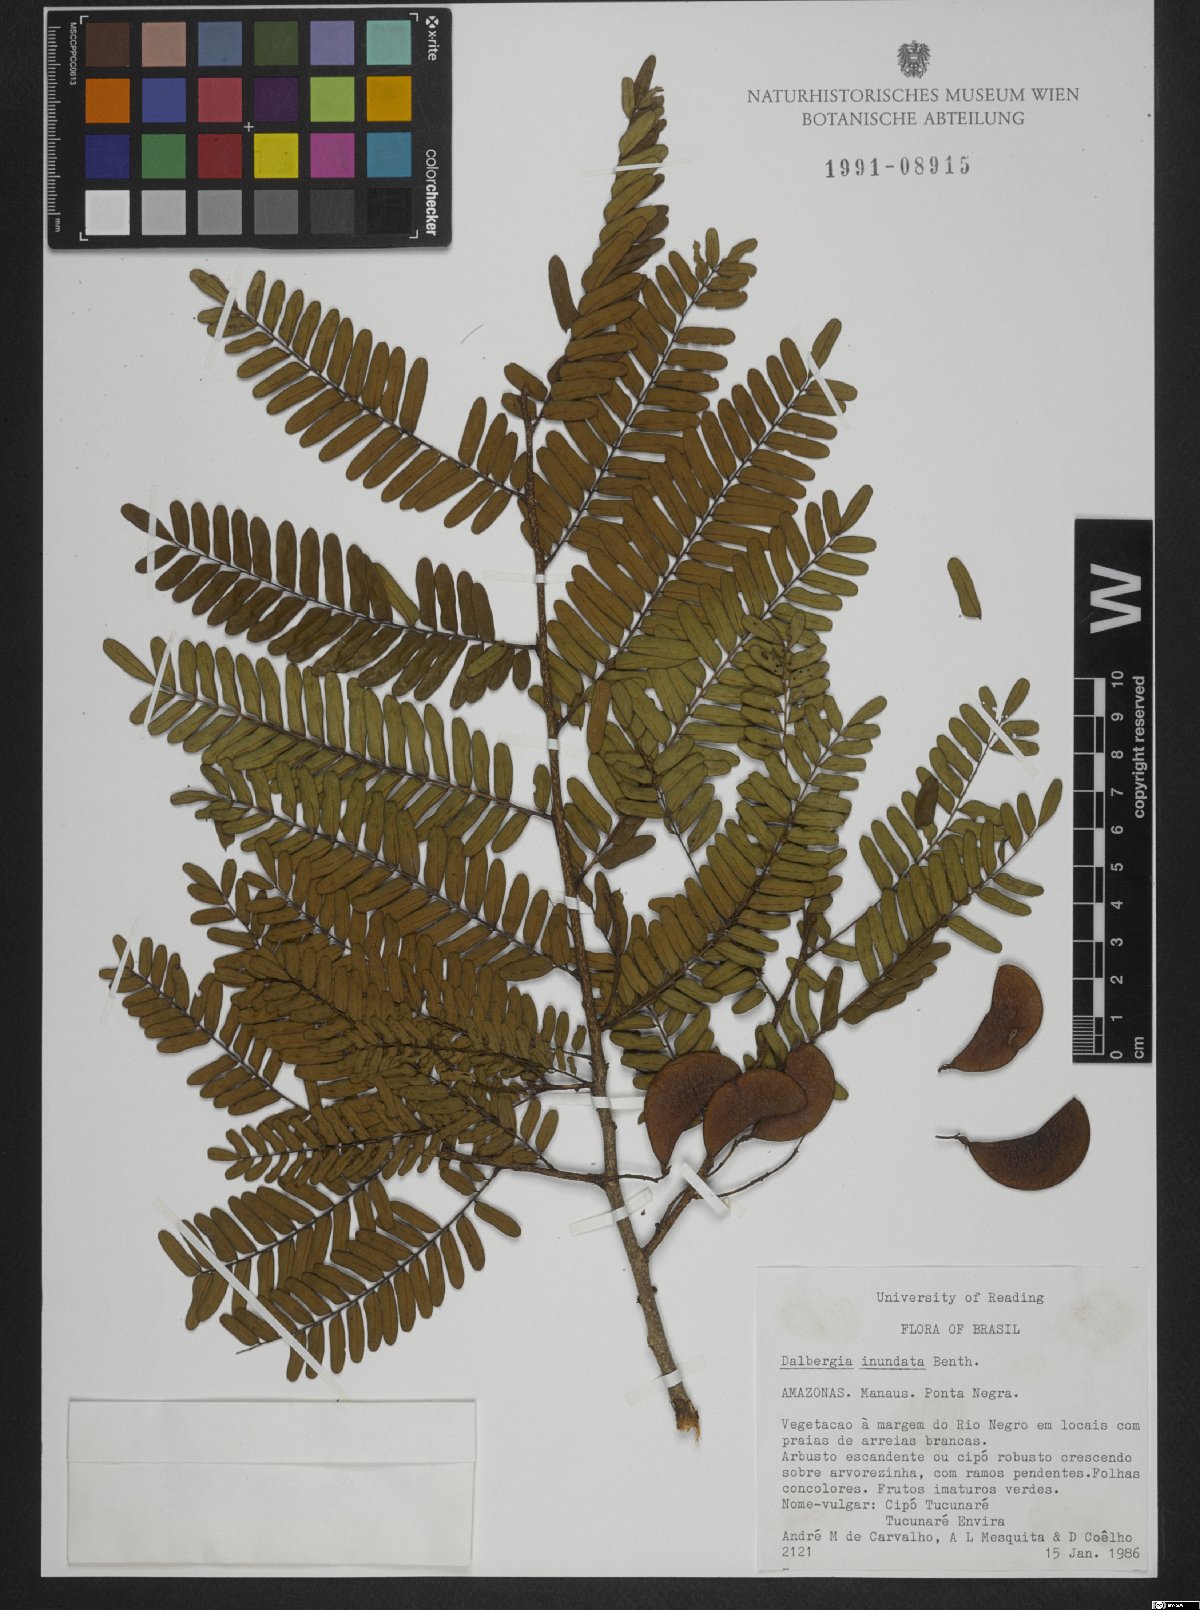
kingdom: Plantae
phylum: Tracheophyta
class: Magnoliopsida
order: Fabales
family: Fabaceae
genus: Dalbergia
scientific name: Dalbergia inundata
